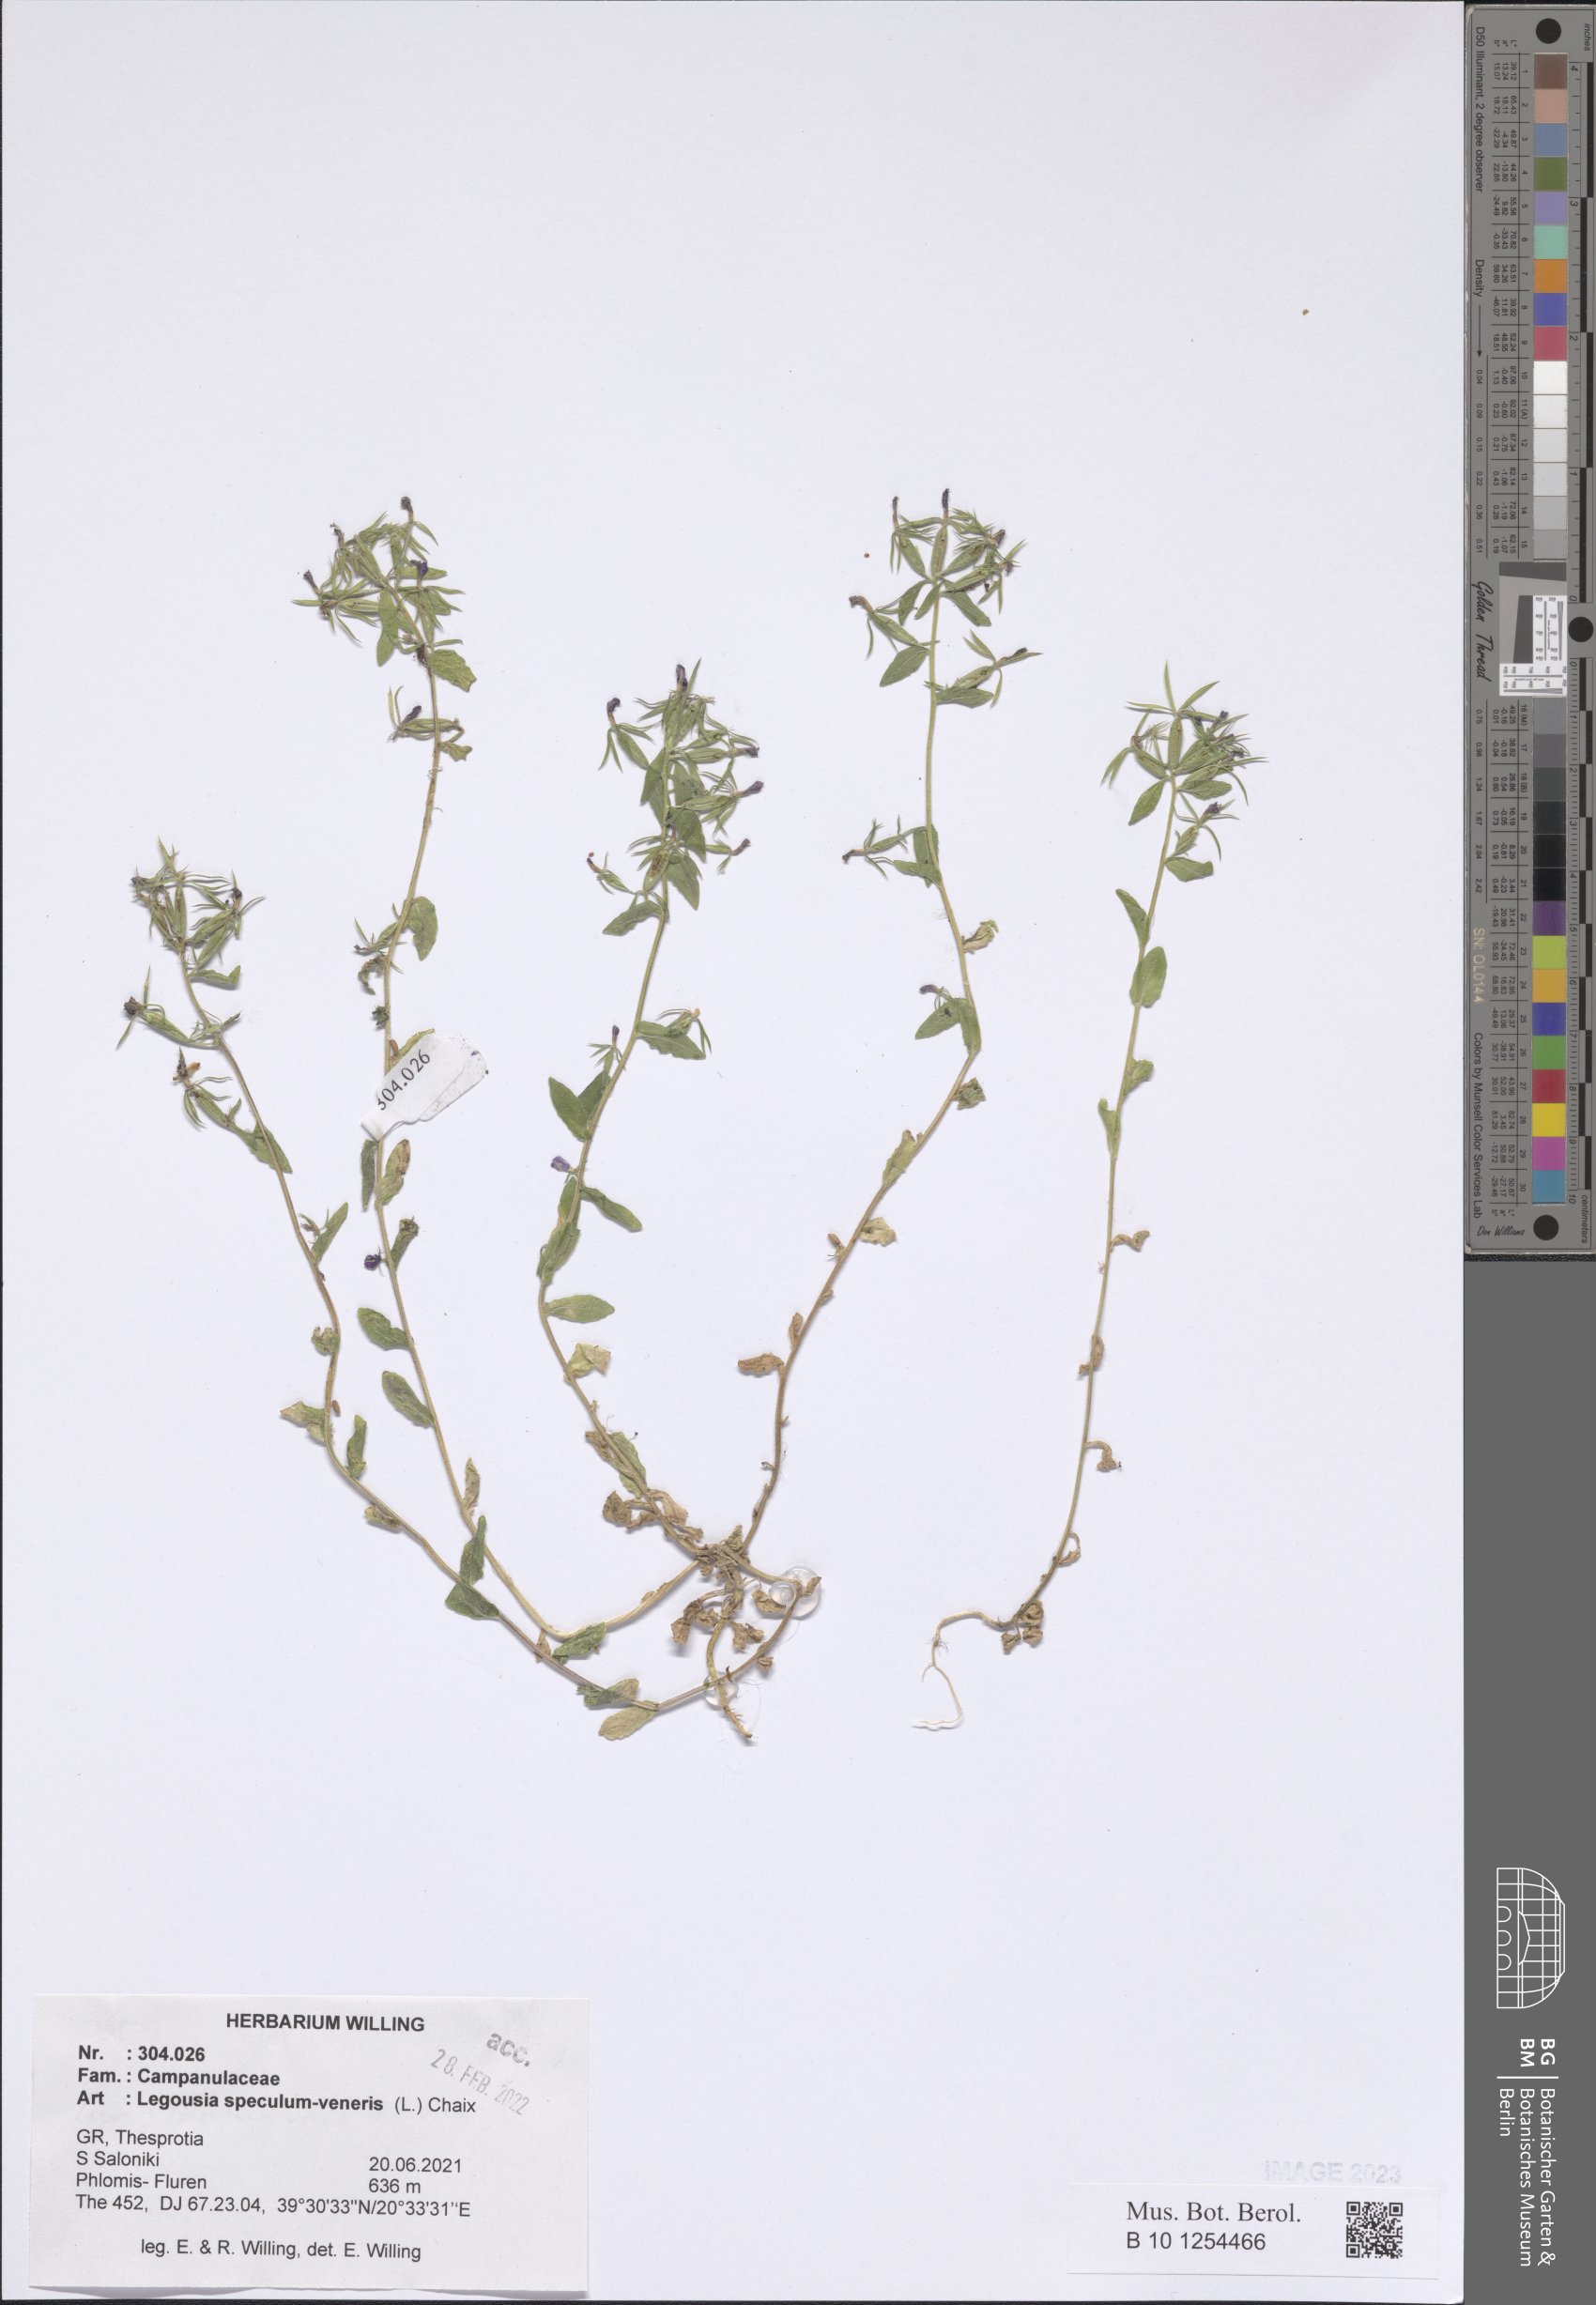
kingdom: Plantae
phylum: Tracheophyta
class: Magnoliopsida
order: Asterales
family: Campanulaceae
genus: Legousia
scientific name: Legousia speculum-veneris
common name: Large venus's-looking-glass
